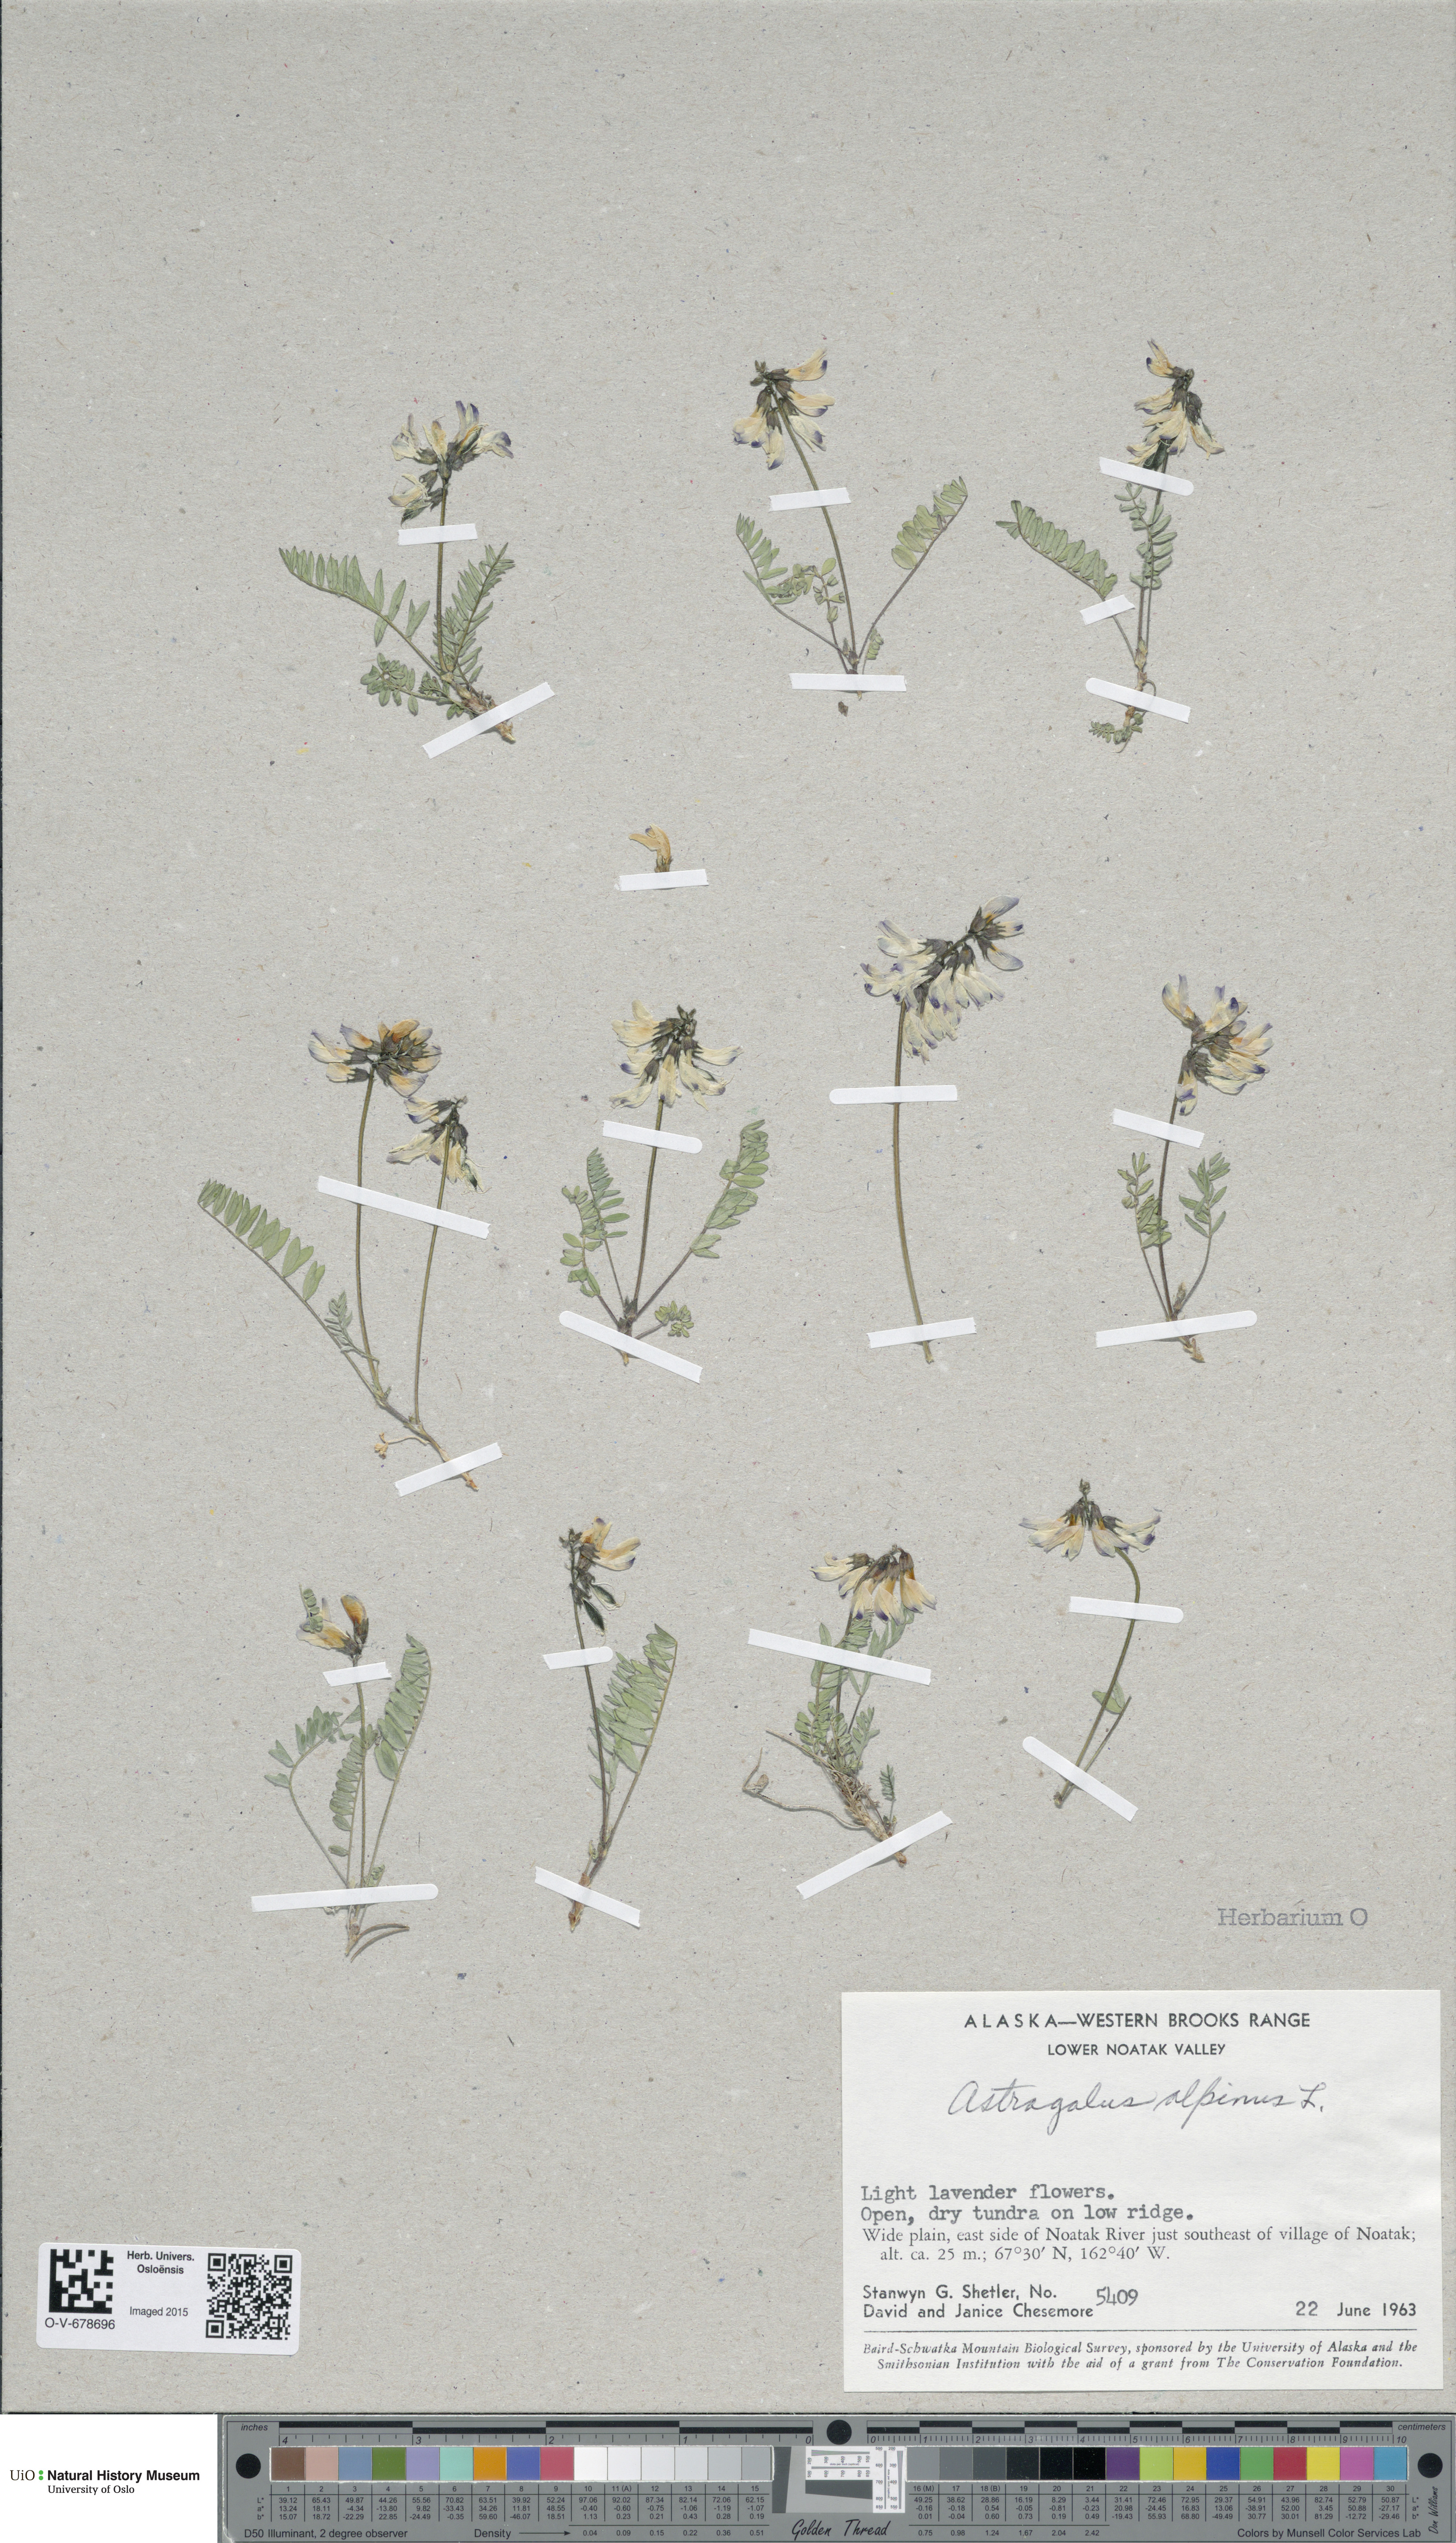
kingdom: Plantae
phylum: Tracheophyta
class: Magnoliopsida
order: Fabales
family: Fabaceae
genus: Astragalus
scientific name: Astragalus alpinus
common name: Alpine milk-vetch
